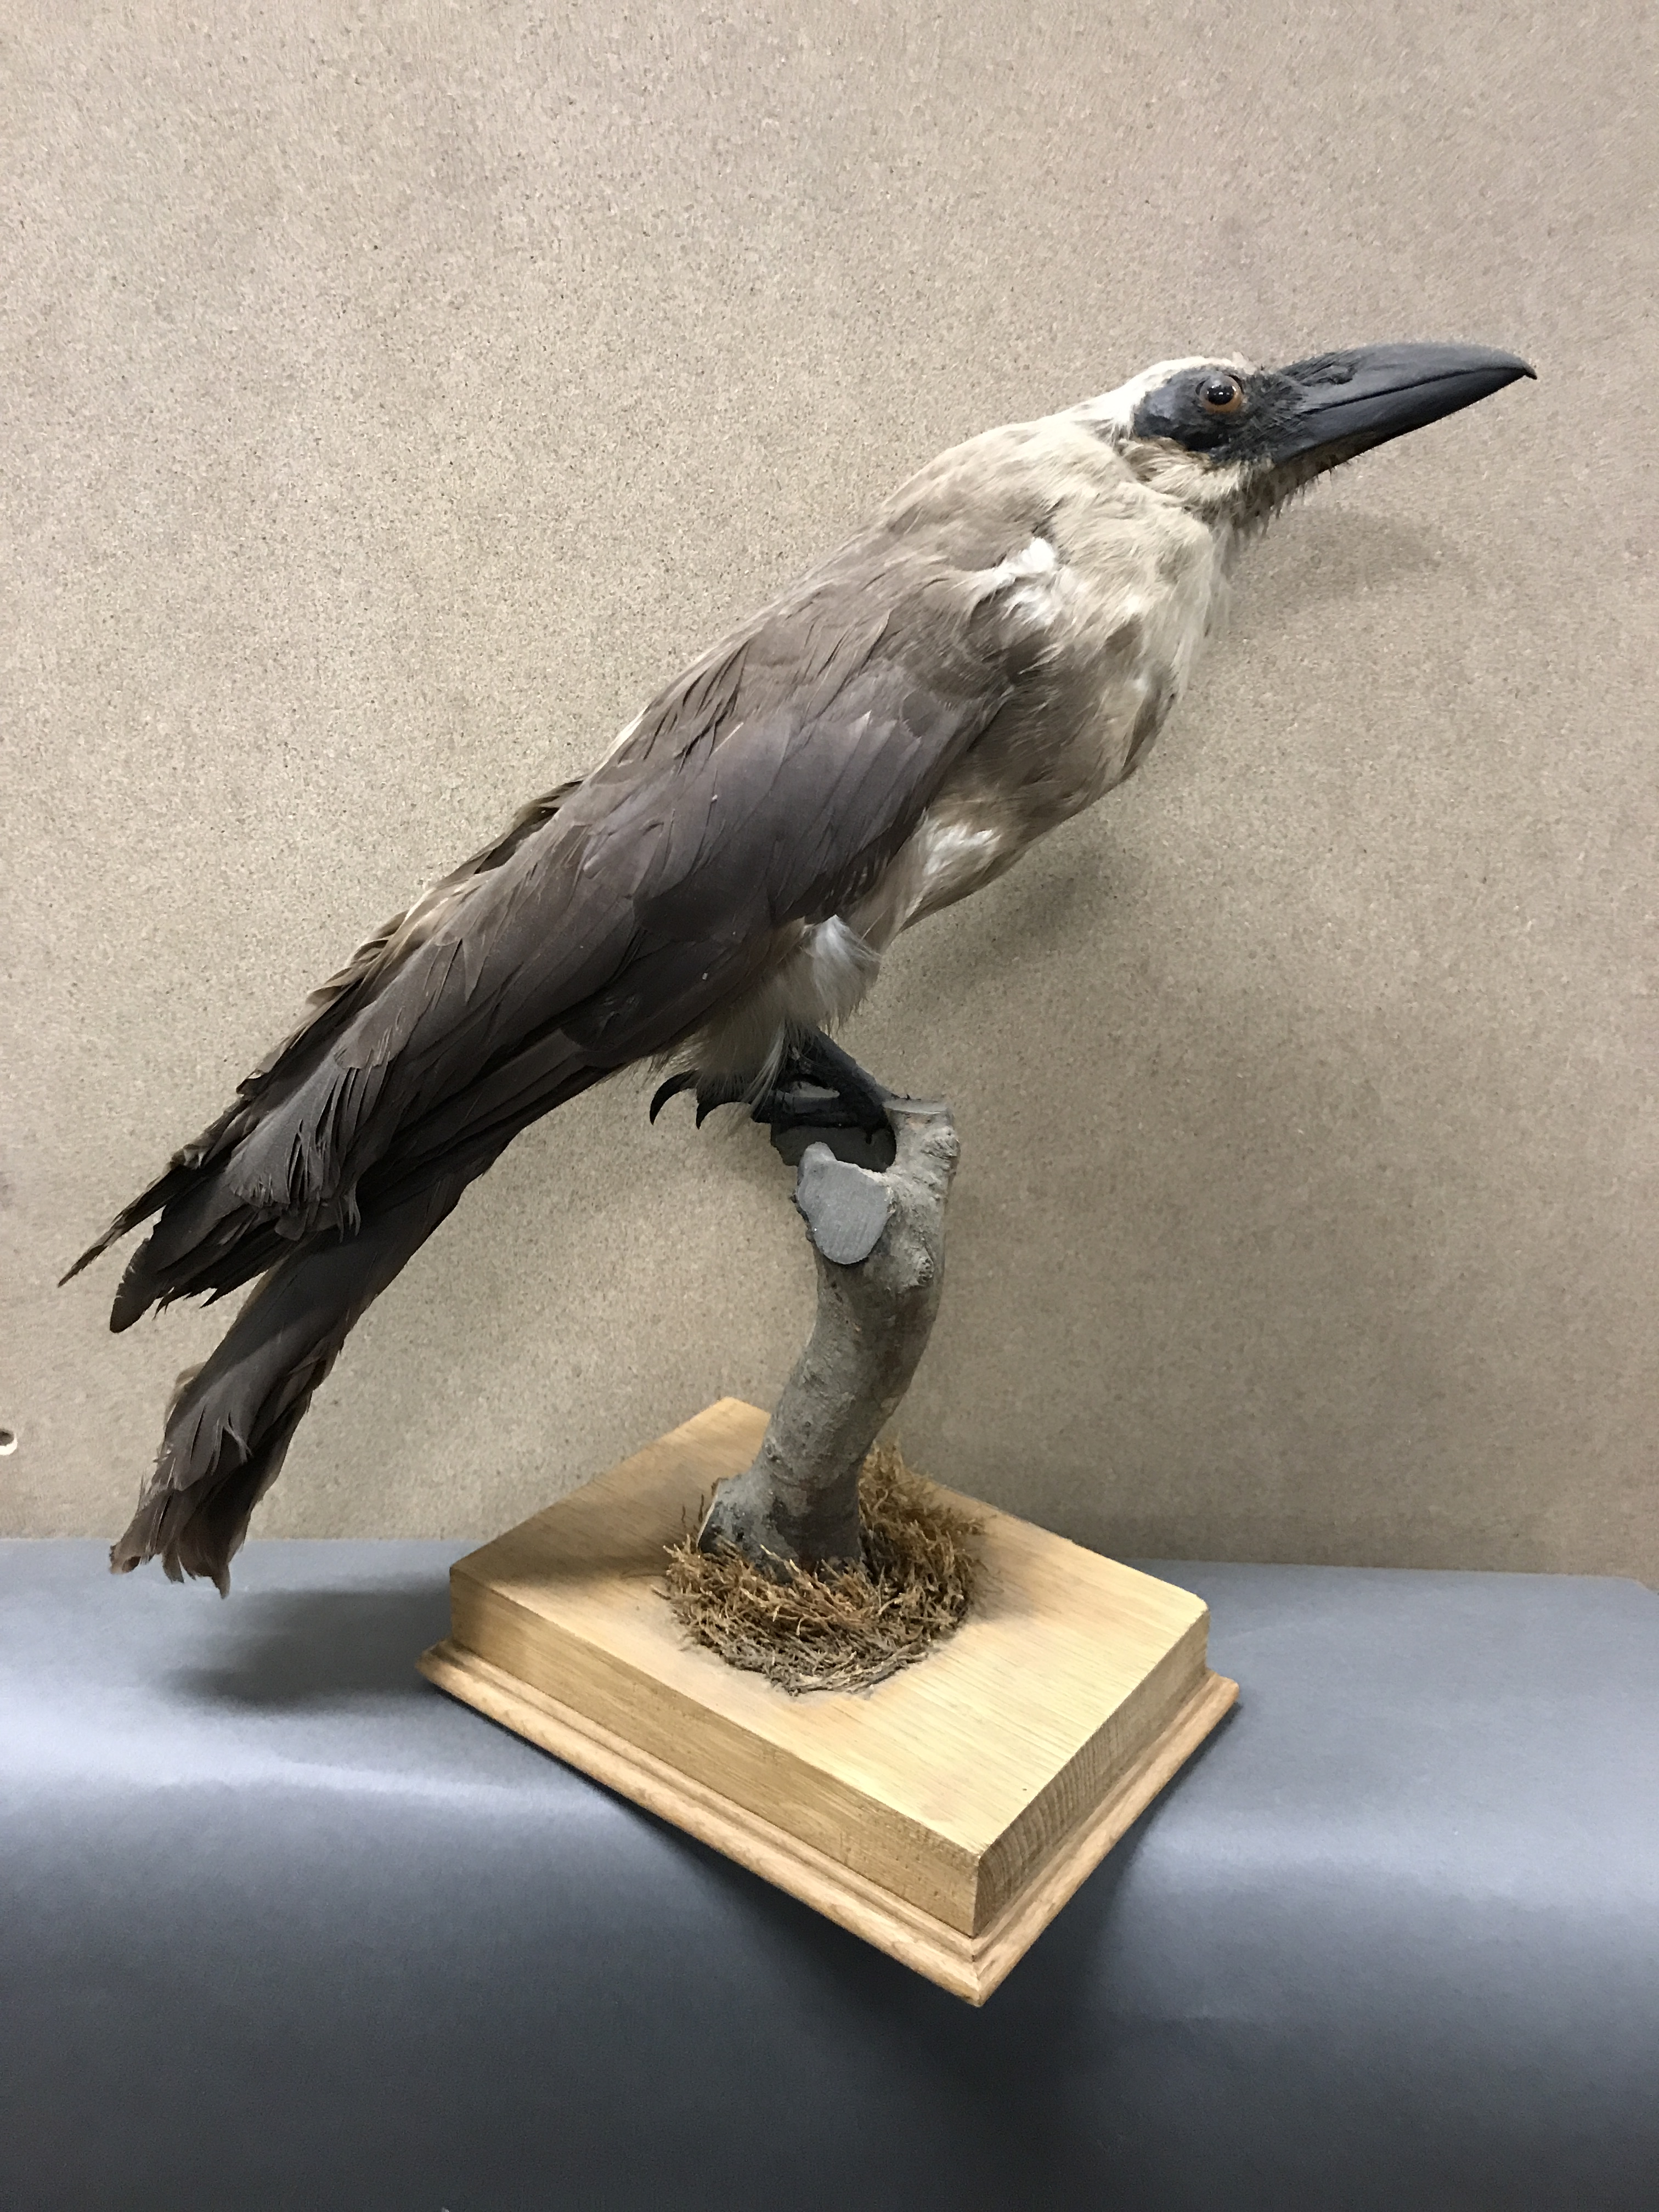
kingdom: Animalia
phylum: Chordata
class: Aves
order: Passeriformes
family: Cracticidae
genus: Strepera
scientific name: Strepera versicolor
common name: Grey currawong
